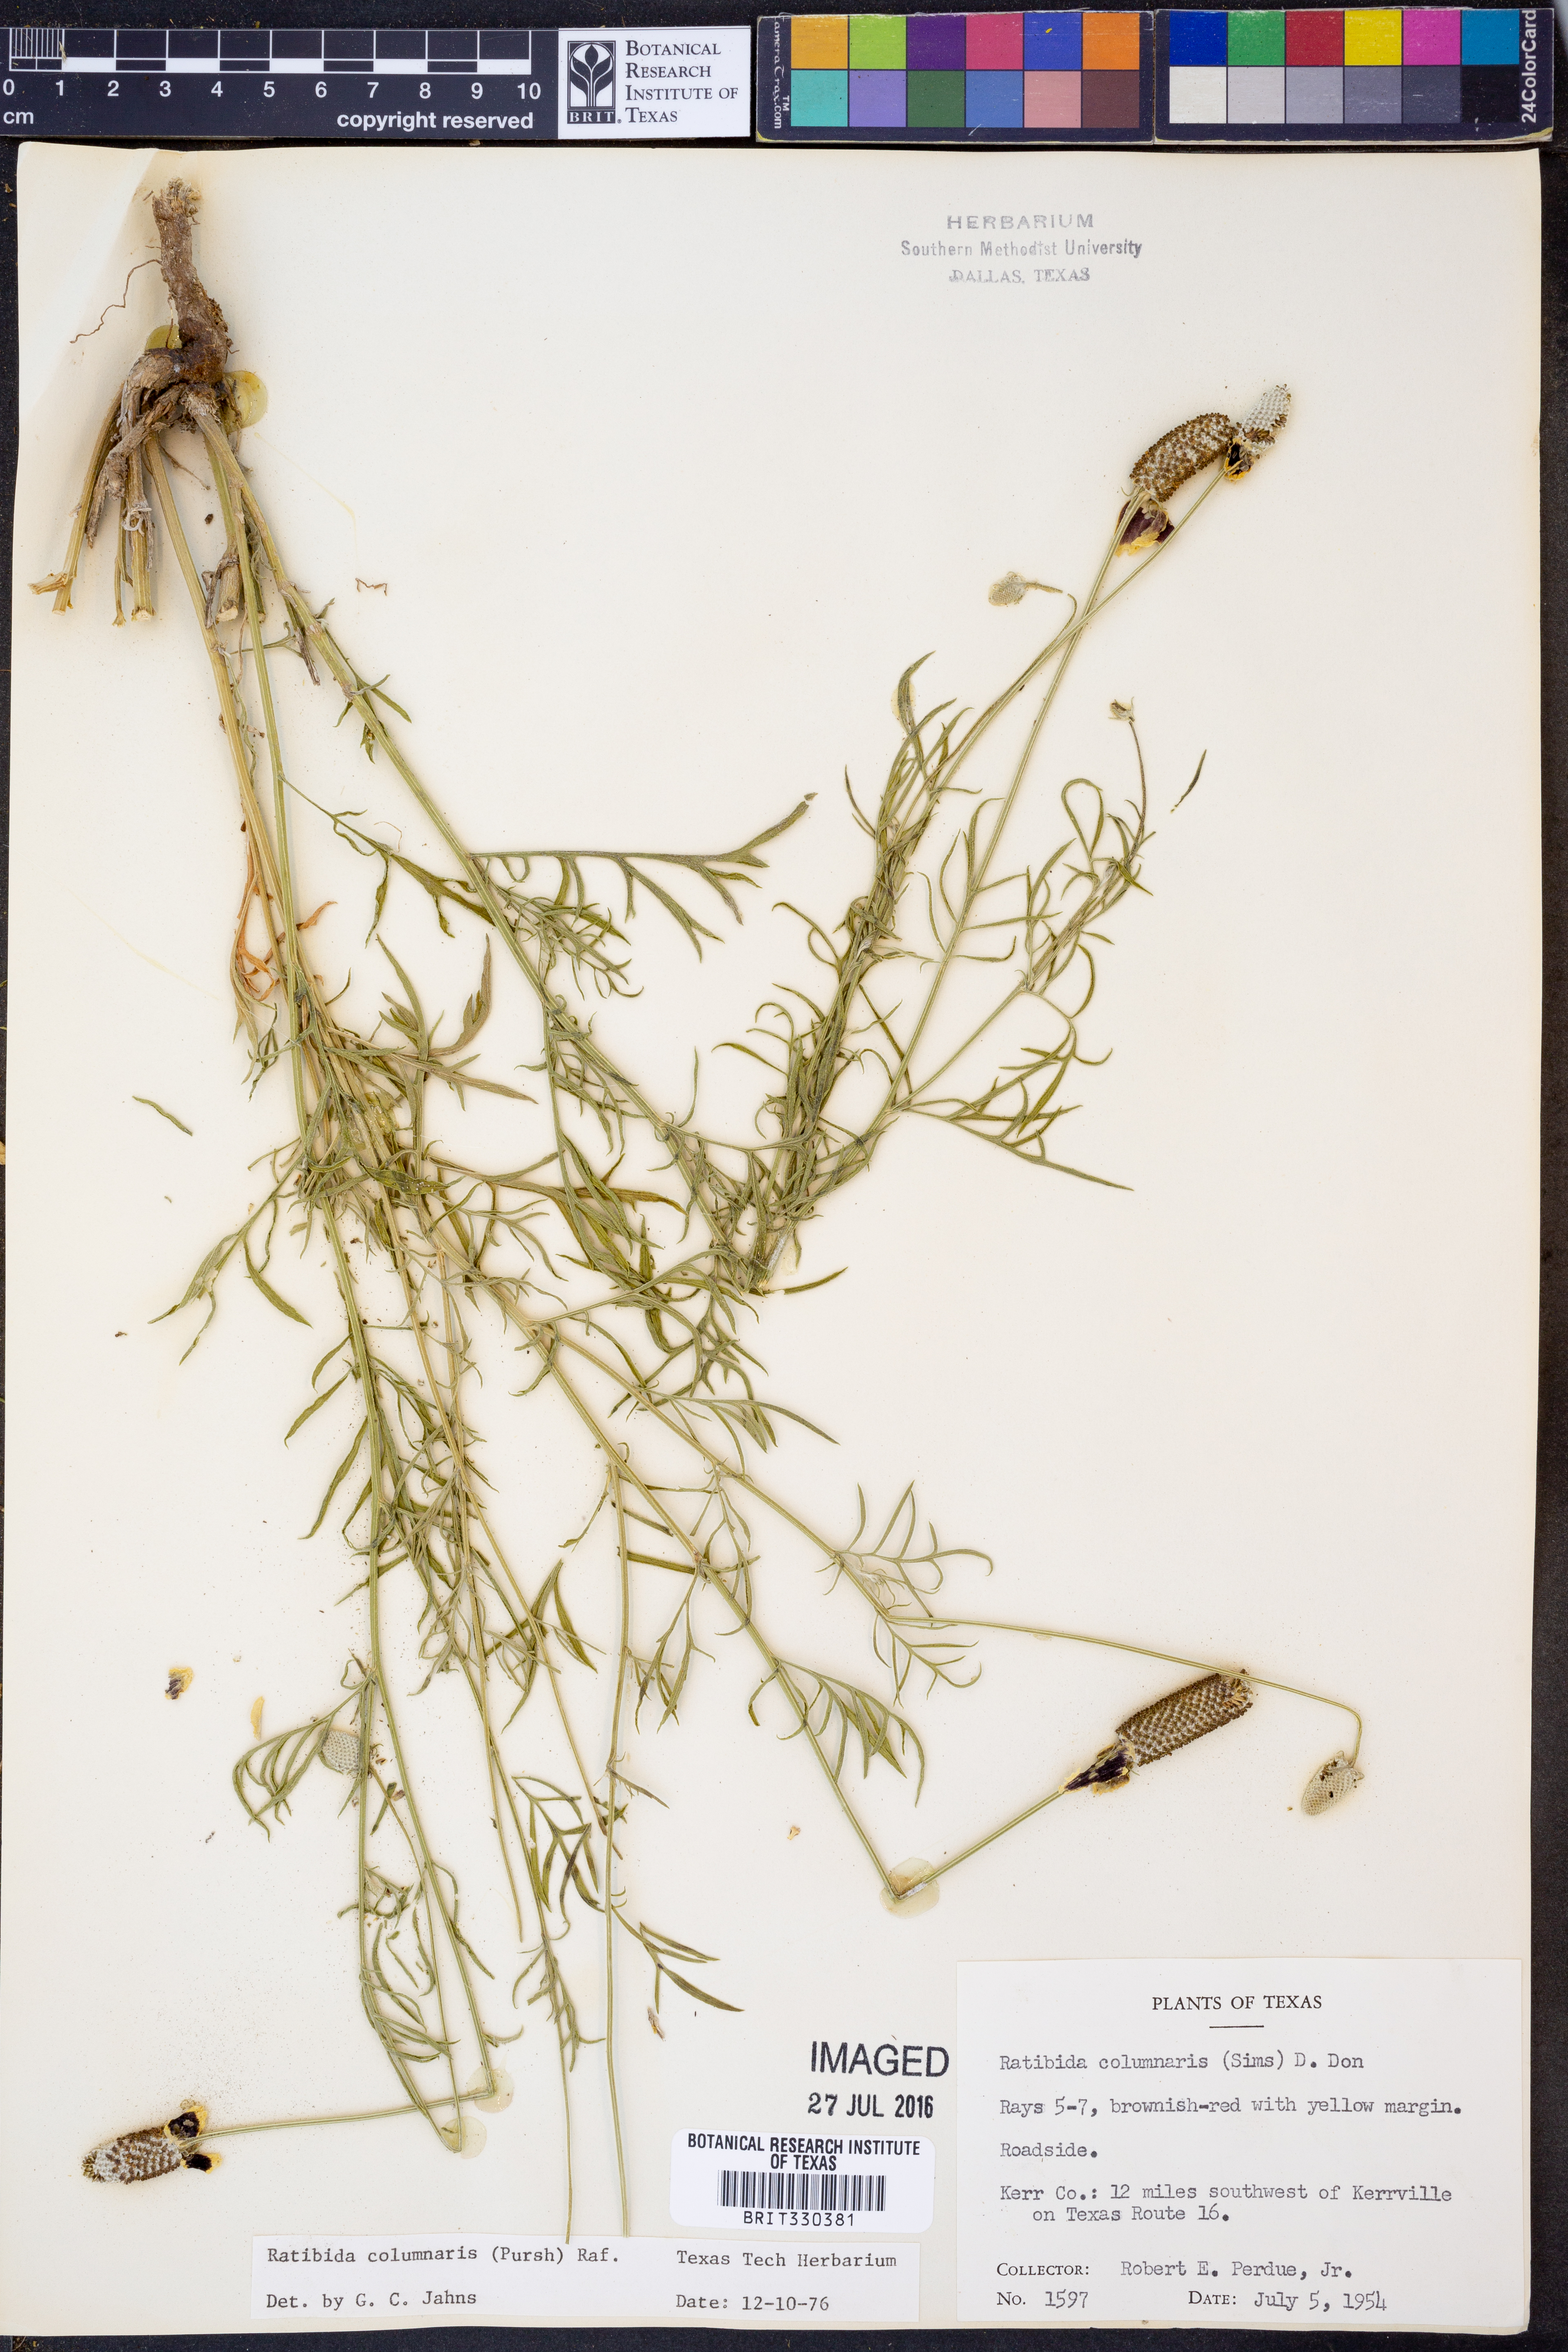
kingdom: Plantae
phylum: Tracheophyta
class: Magnoliopsida
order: Asterales
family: Asteraceae
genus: Ratibida
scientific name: Ratibida columnifera
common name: Prairie coneflower
